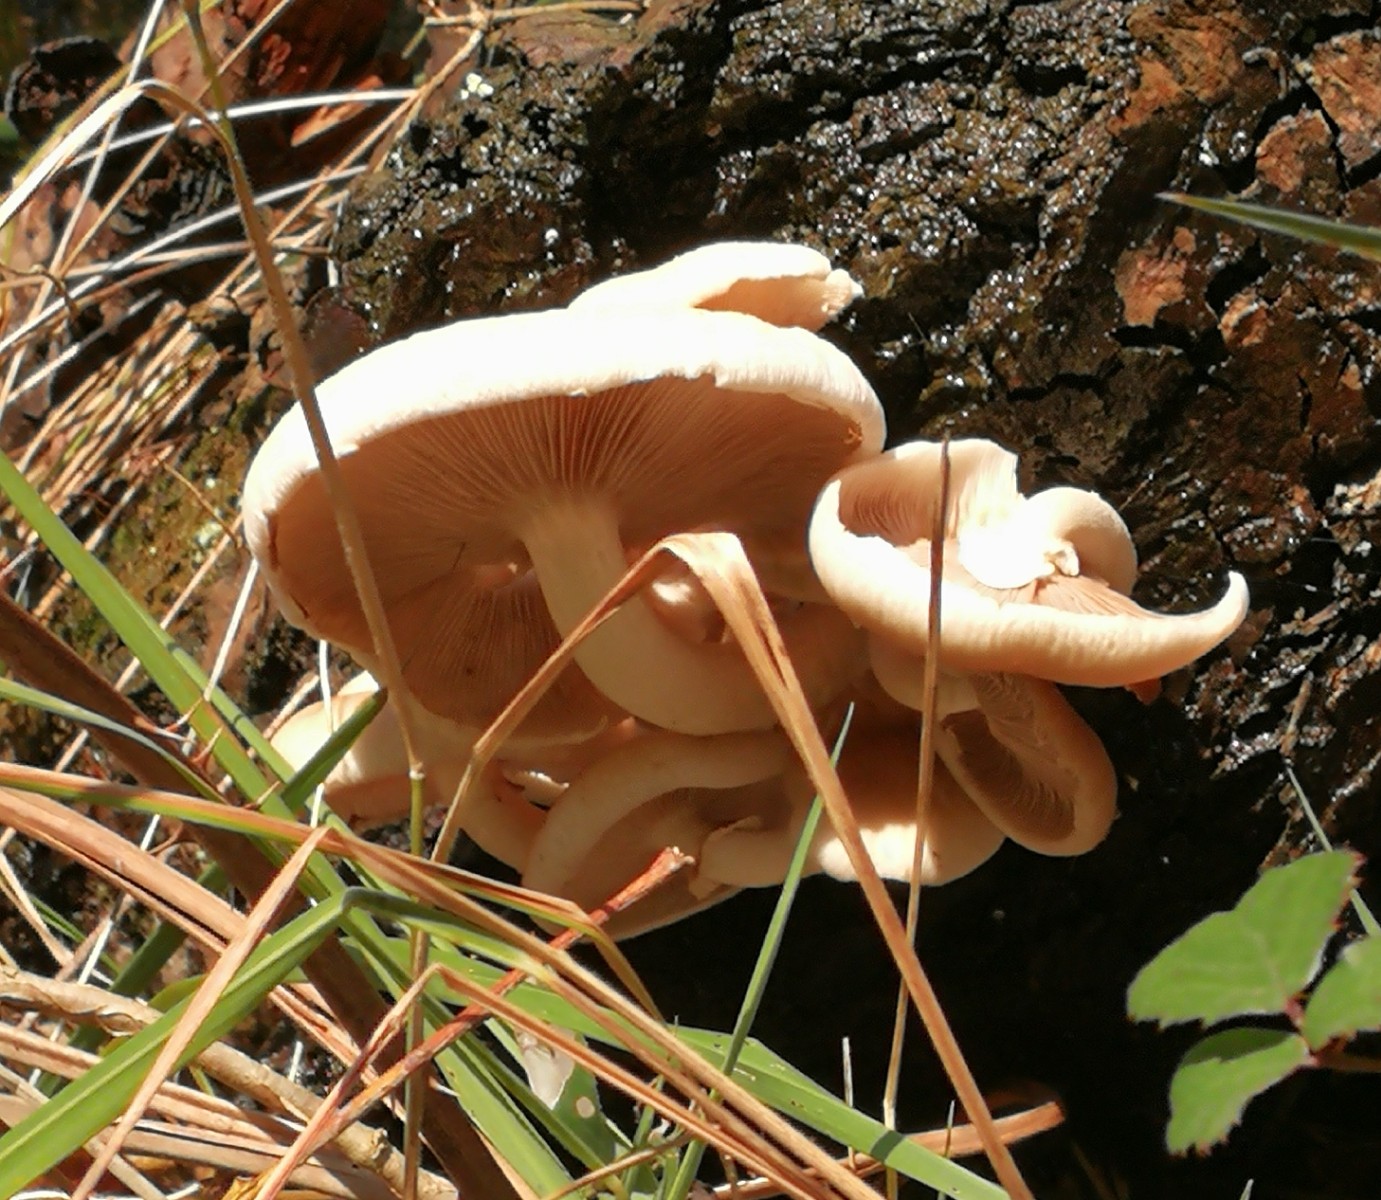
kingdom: Fungi
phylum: Basidiomycota
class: Agaricomycetes
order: Agaricales
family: Tubariaceae
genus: Cyclocybe
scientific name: Cyclocybe
